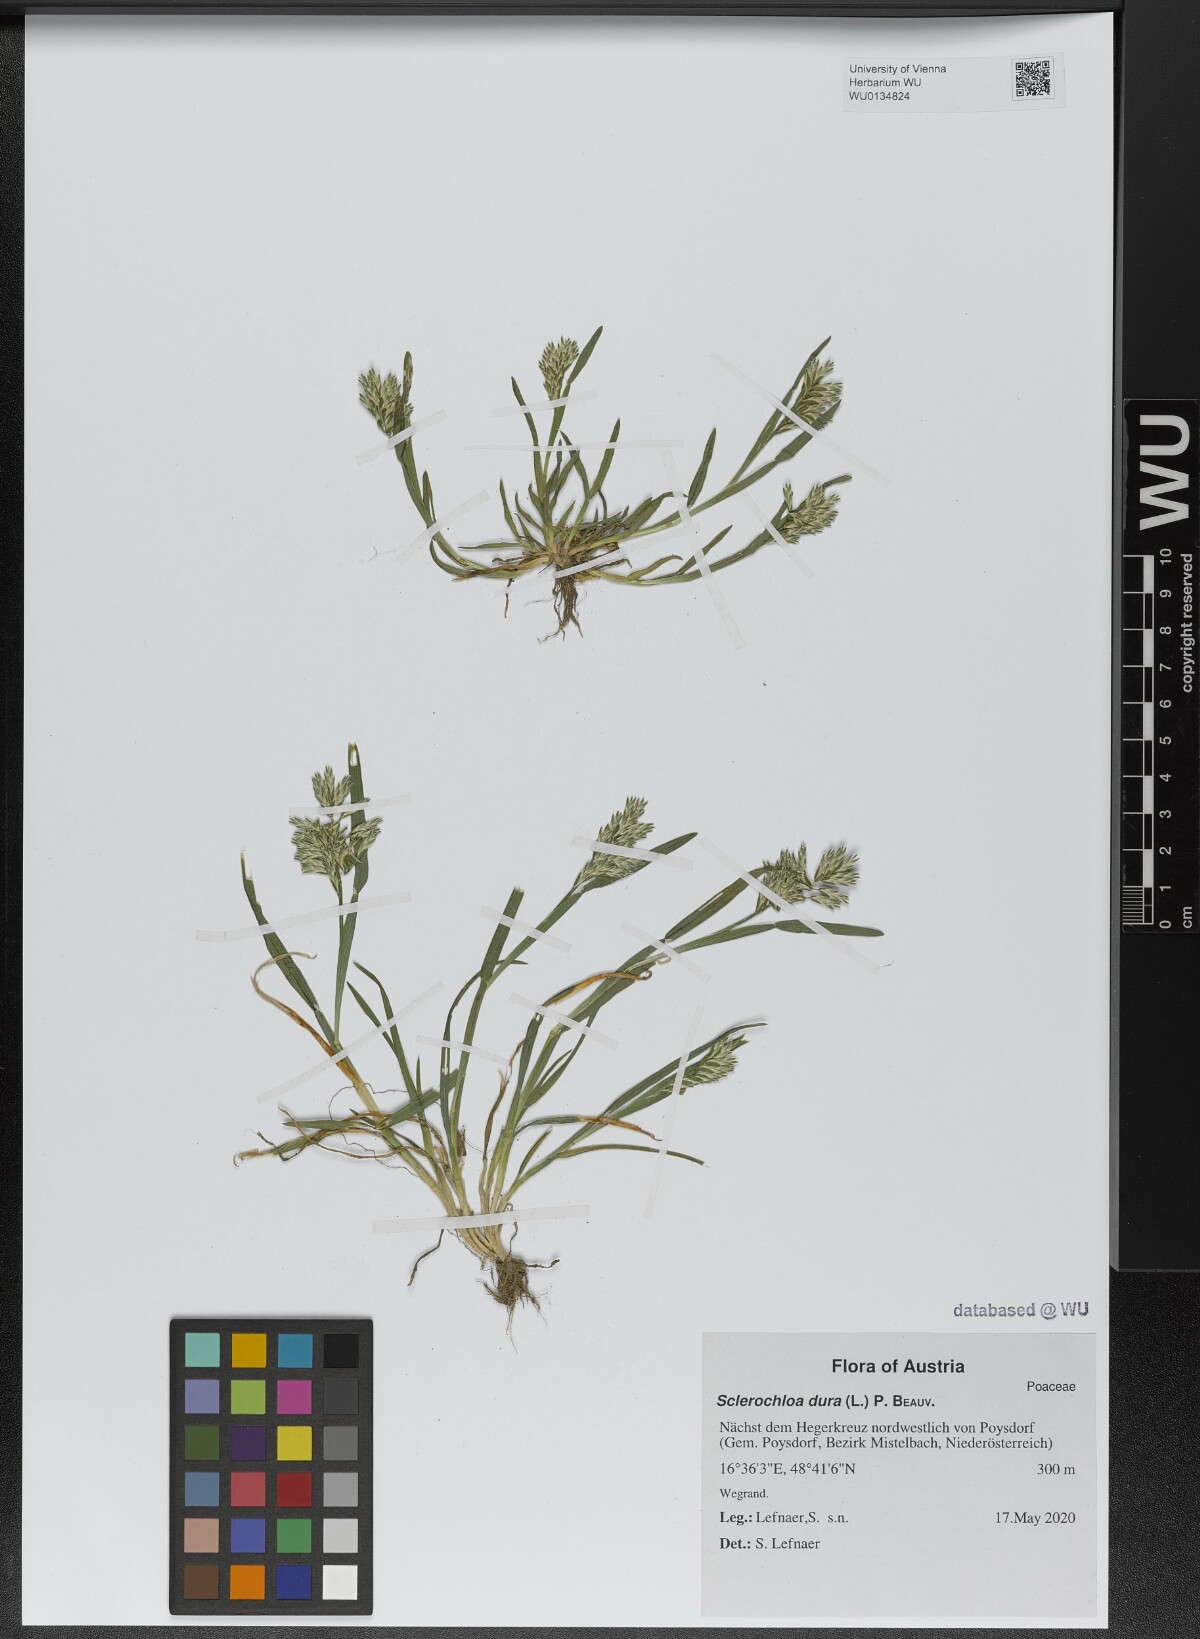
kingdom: Plantae
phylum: Tracheophyta
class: Liliopsida
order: Poales
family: Poaceae
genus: Sclerochloa
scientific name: Sclerochloa dura
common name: Common hardgrass
